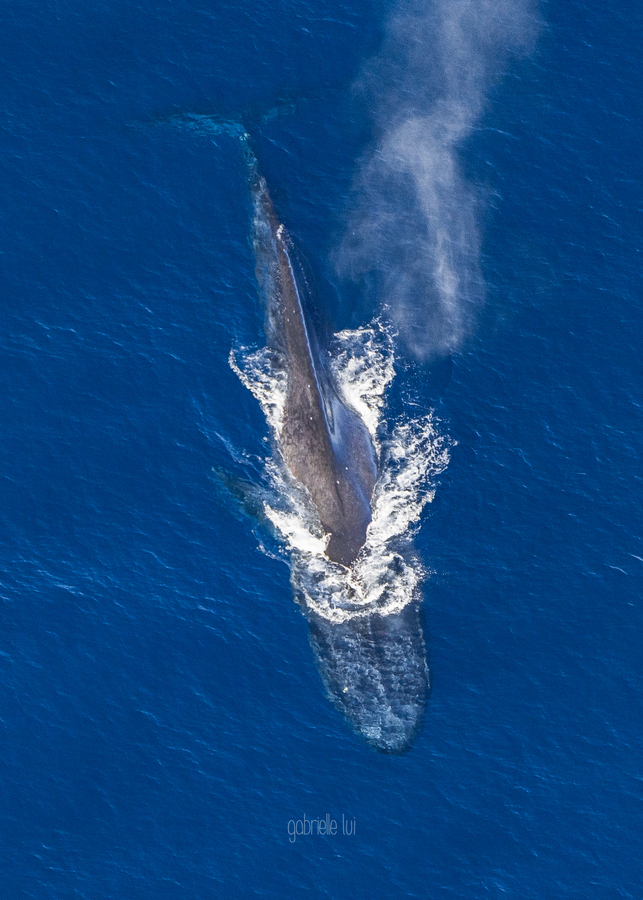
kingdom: Animalia
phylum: Chordata
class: Mammalia
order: Cetacea
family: Balaenopteridae
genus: Balaenoptera
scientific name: Balaenoptera musculus
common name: Blue whale
